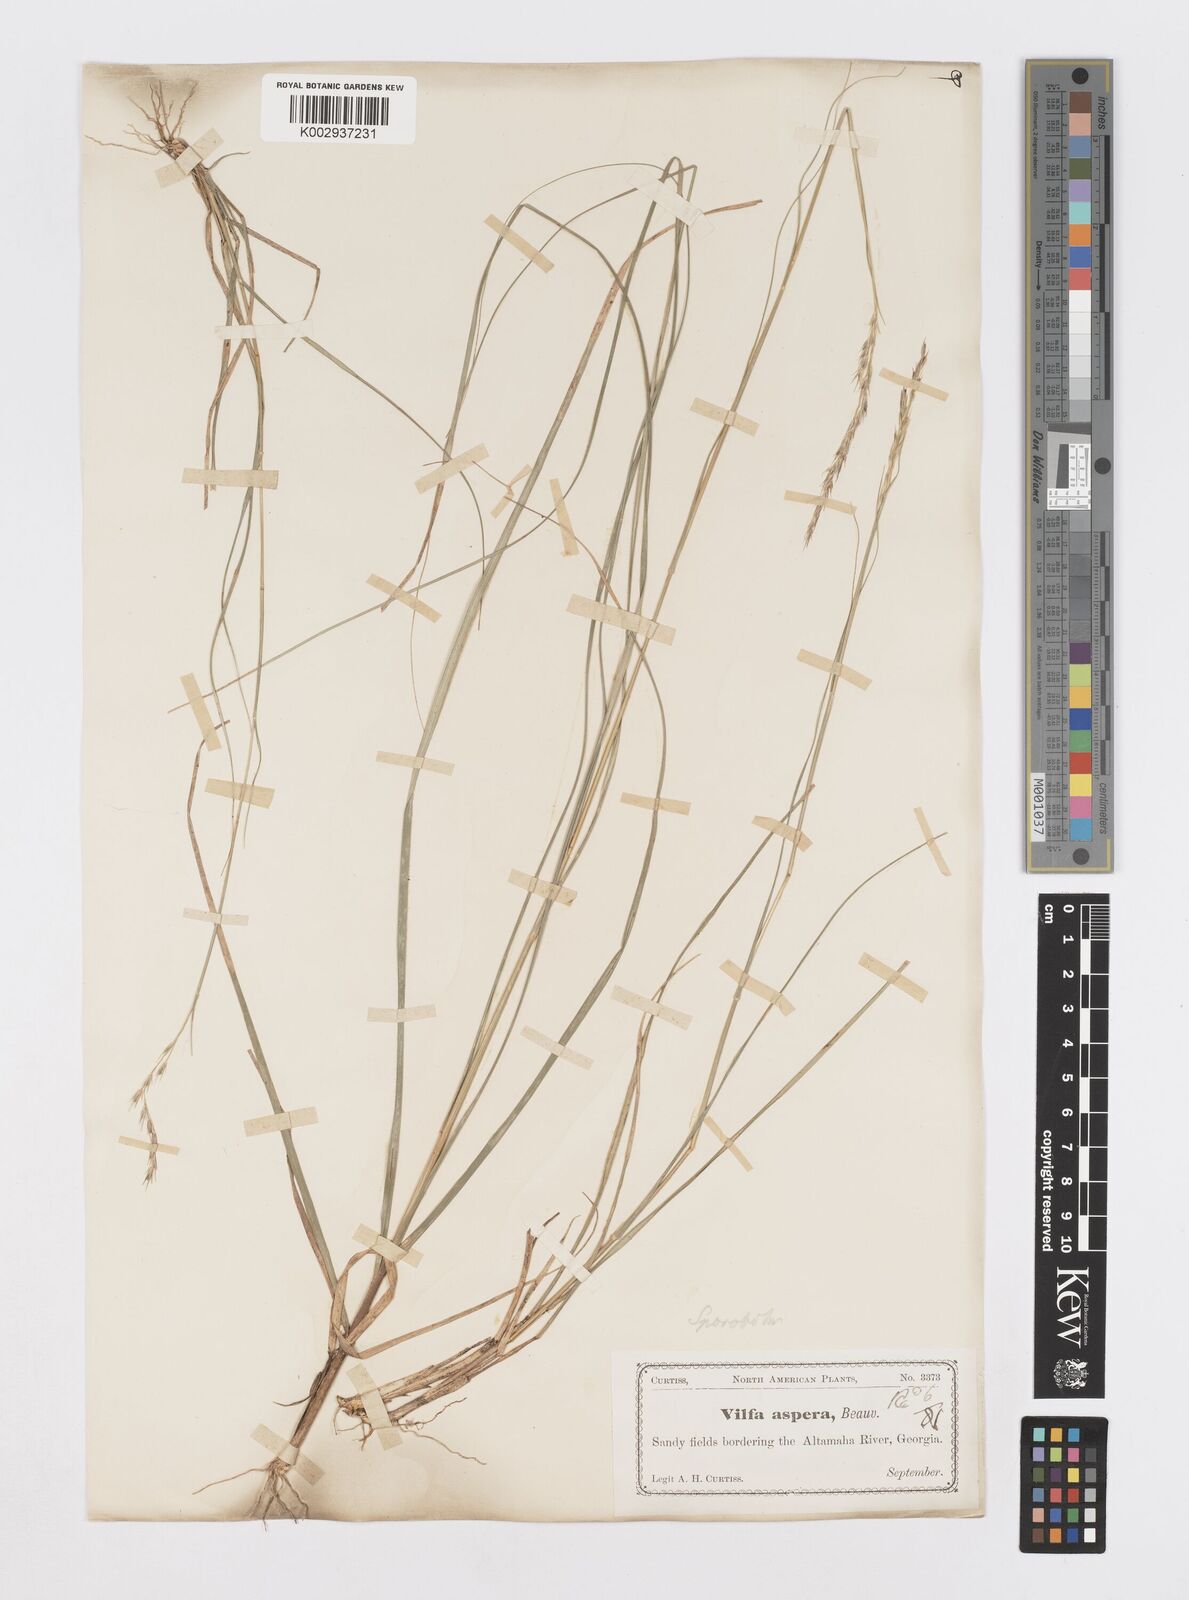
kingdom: Plantae
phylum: Tracheophyta
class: Liliopsida
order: Poales
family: Poaceae
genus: Sporobolus
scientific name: Sporobolus clandestinus
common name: Hidden dropseed
